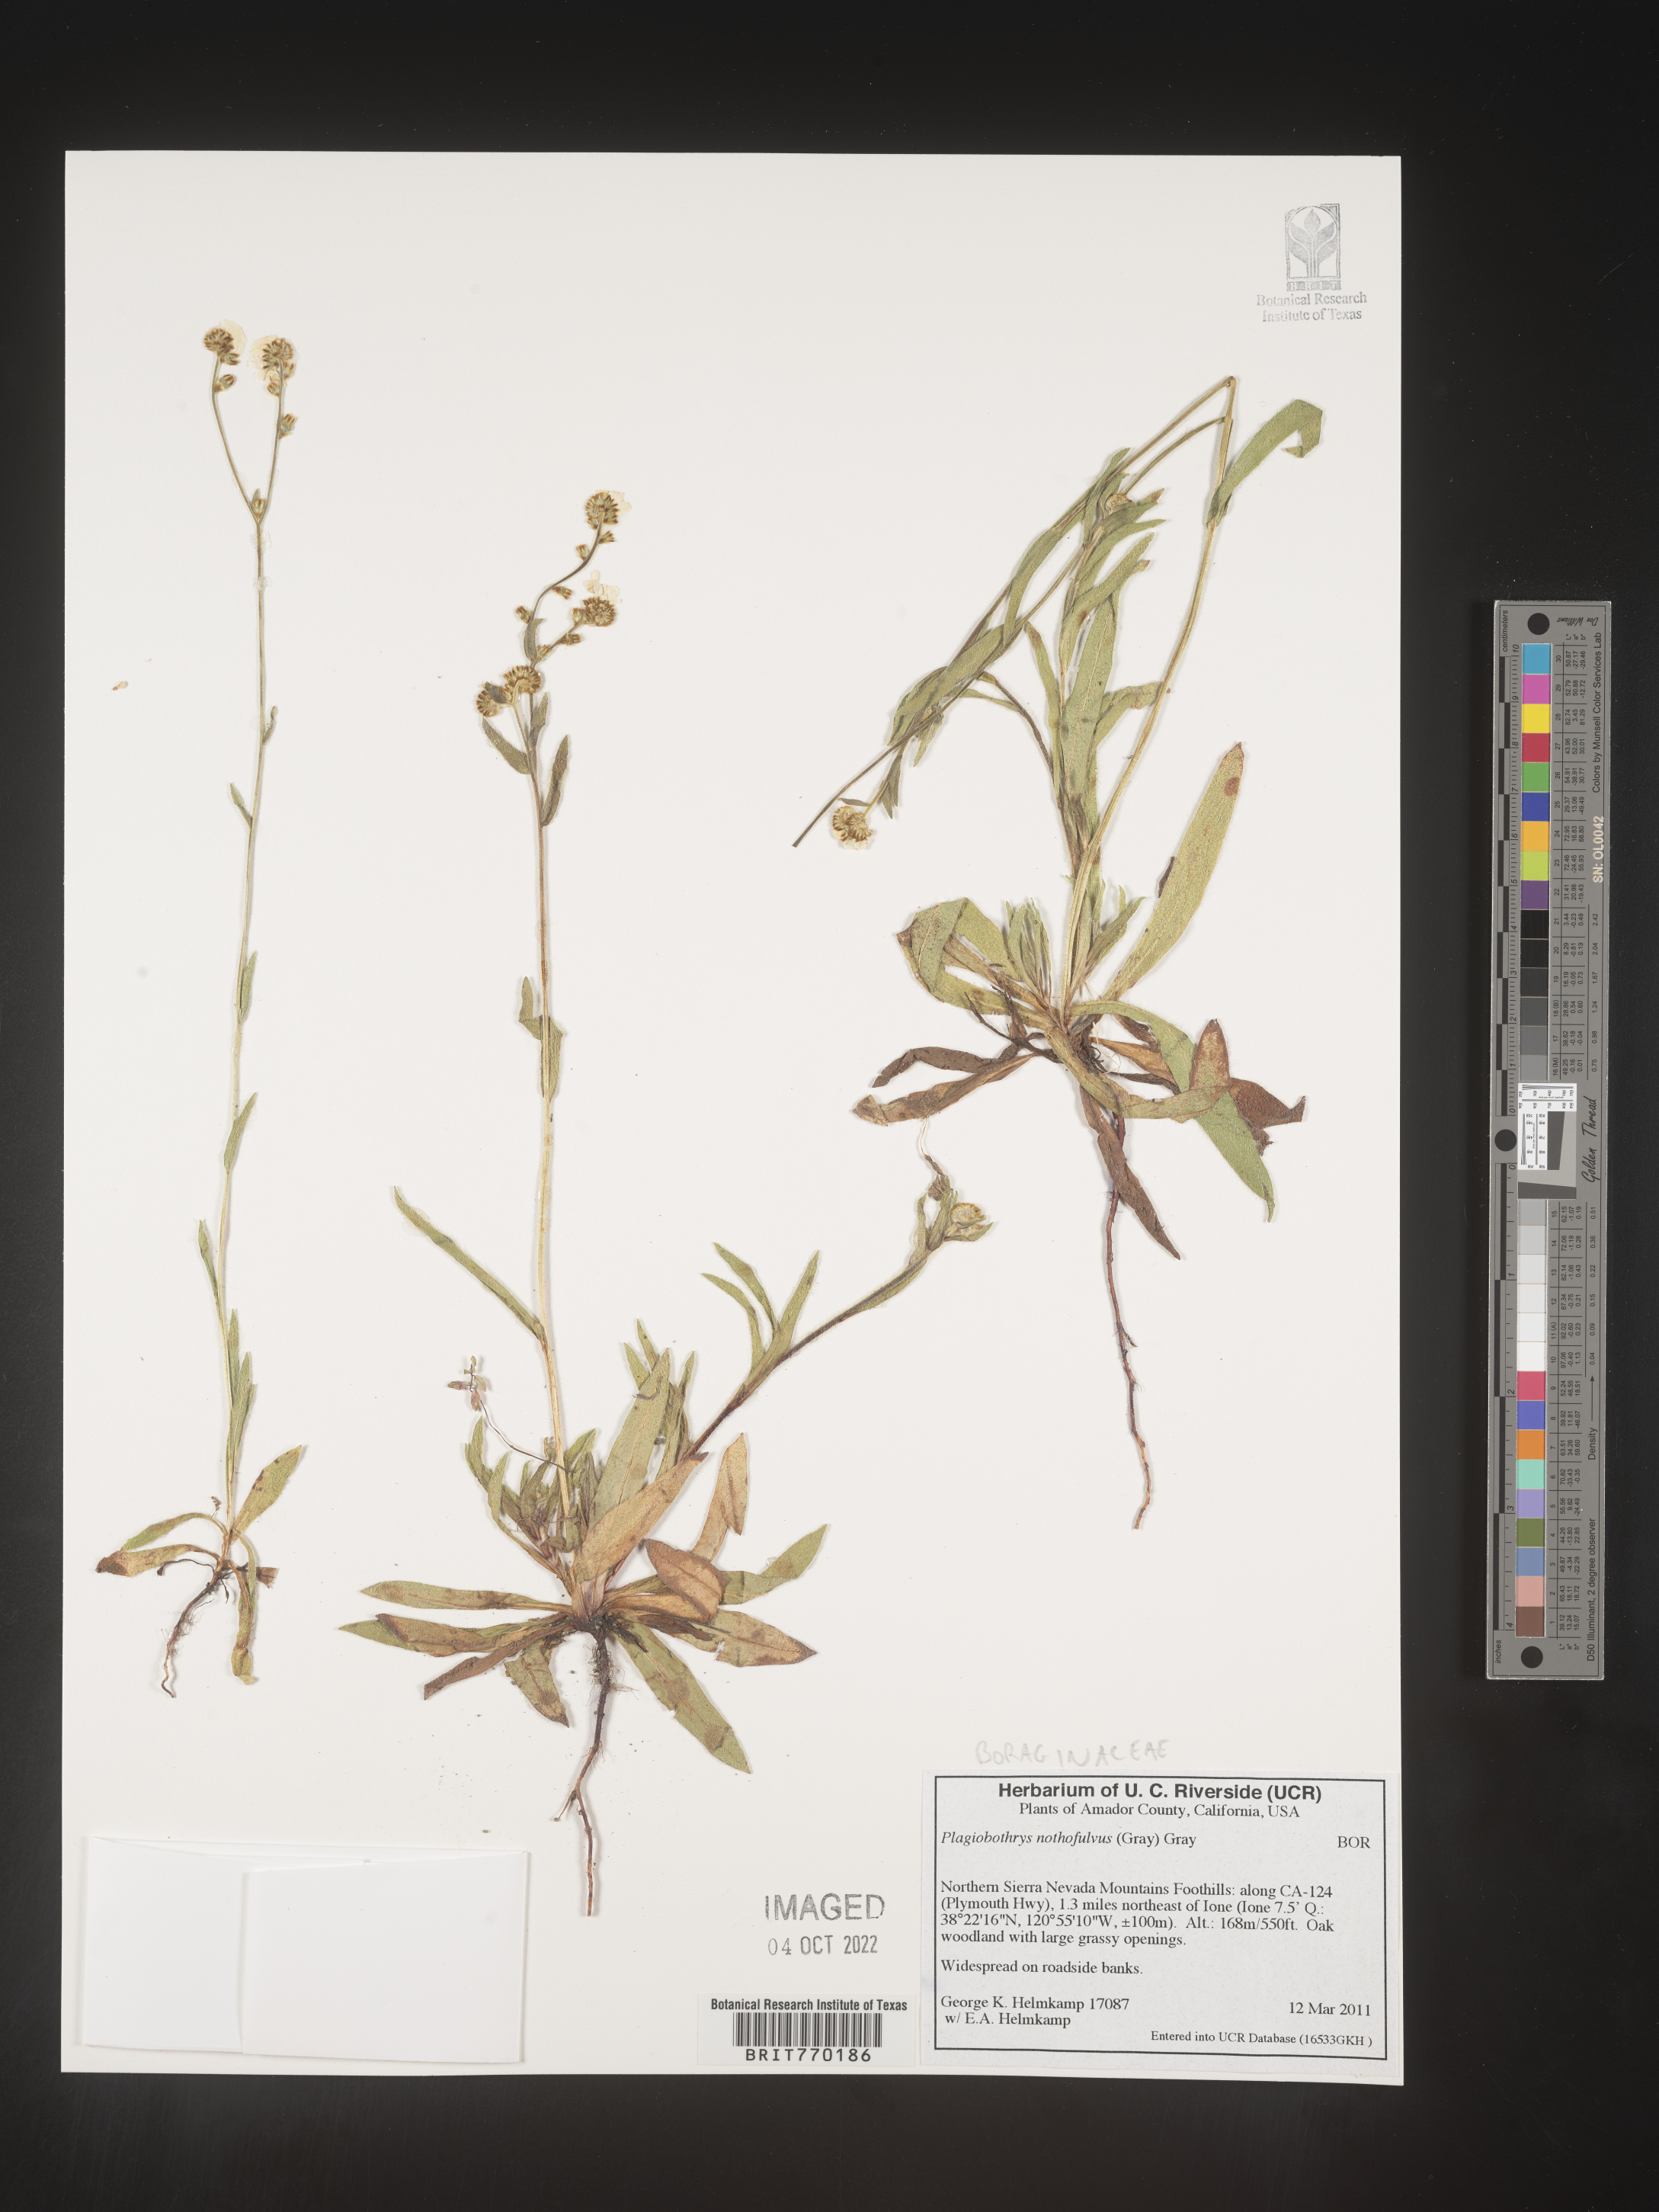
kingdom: Plantae
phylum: Tracheophyta
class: Magnoliopsida
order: Boraginales
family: Boraginaceae
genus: Plagiobothrys
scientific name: Plagiobothrys
